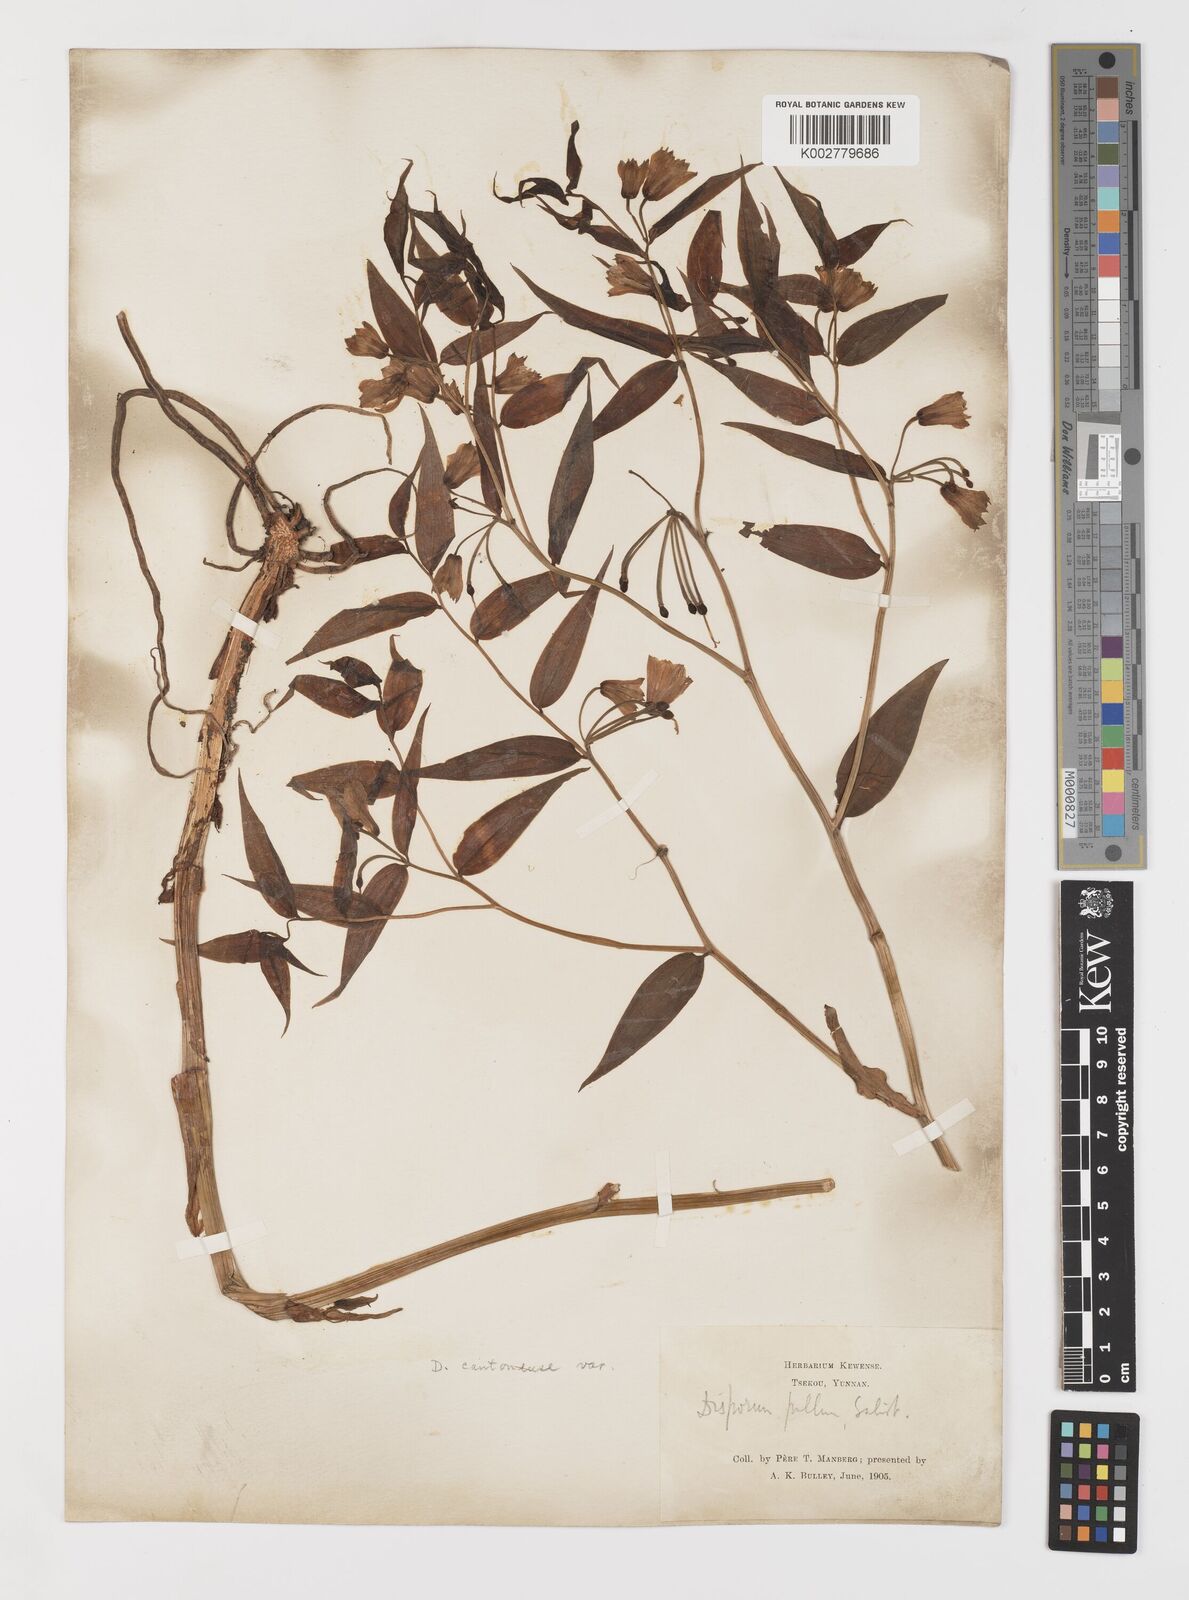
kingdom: Plantae
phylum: Tracheophyta
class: Liliopsida
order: Liliales
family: Colchicaceae
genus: Disporum
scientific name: Disporum cantoniense
